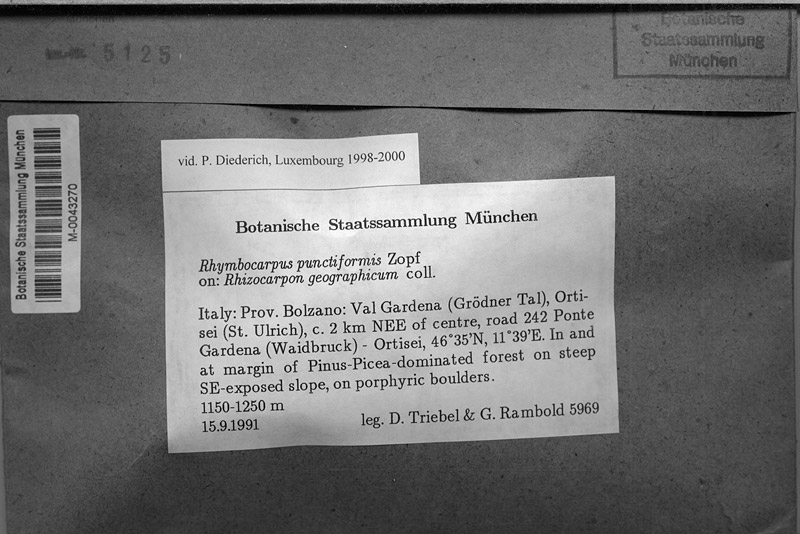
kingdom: Fungi
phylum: Ascomycota
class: Lecanoromycetes
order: Rhizocarpales
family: Rhizocarpaceae
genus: Rhizocarpon
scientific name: Rhizocarpon geographicum
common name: Yellow map lichen
